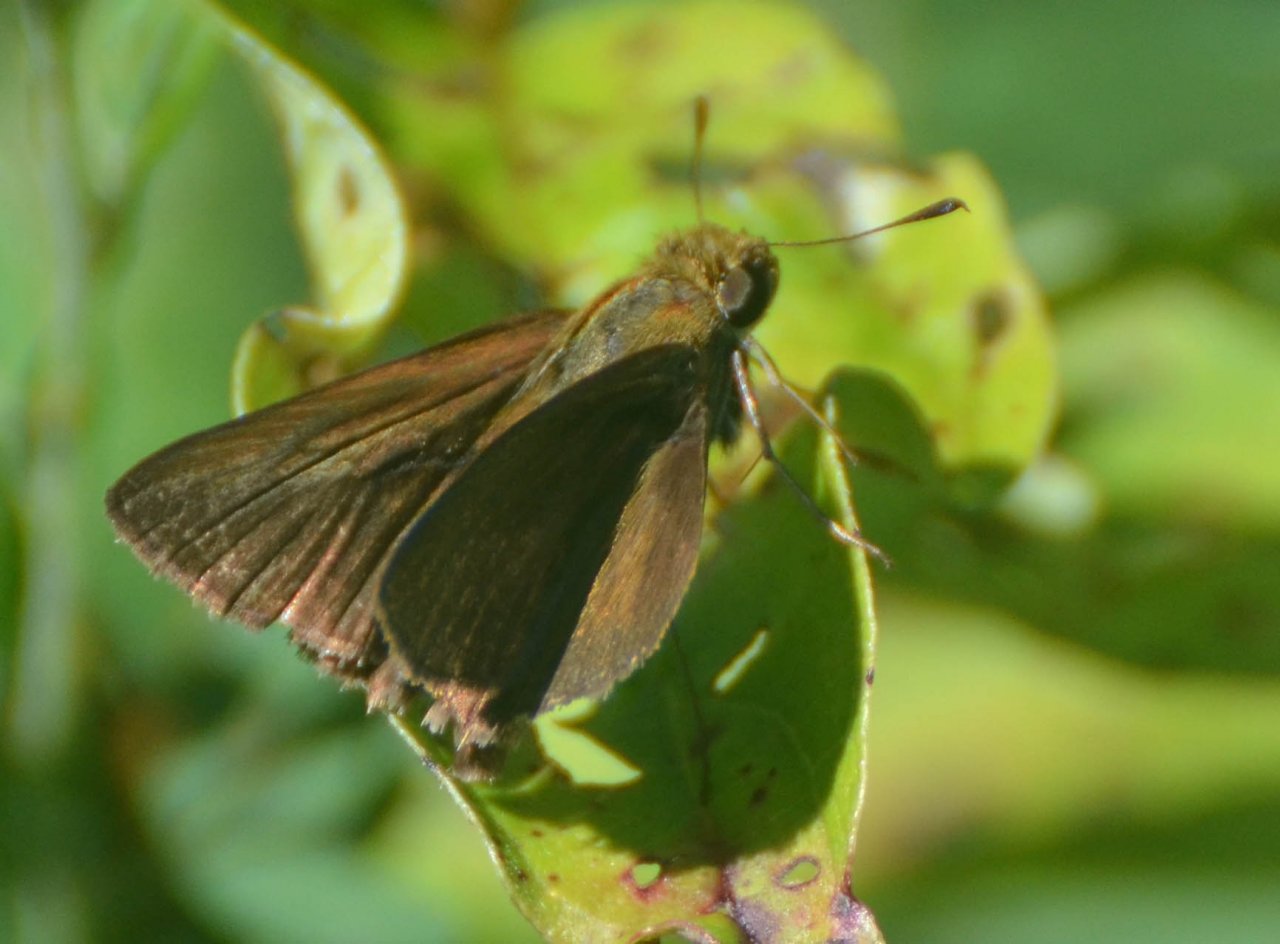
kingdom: Animalia
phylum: Arthropoda
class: Insecta
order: Lepidoptera
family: Hesperiidae
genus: Euphyes
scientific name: Euphyes vestris
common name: Dun Skipper
